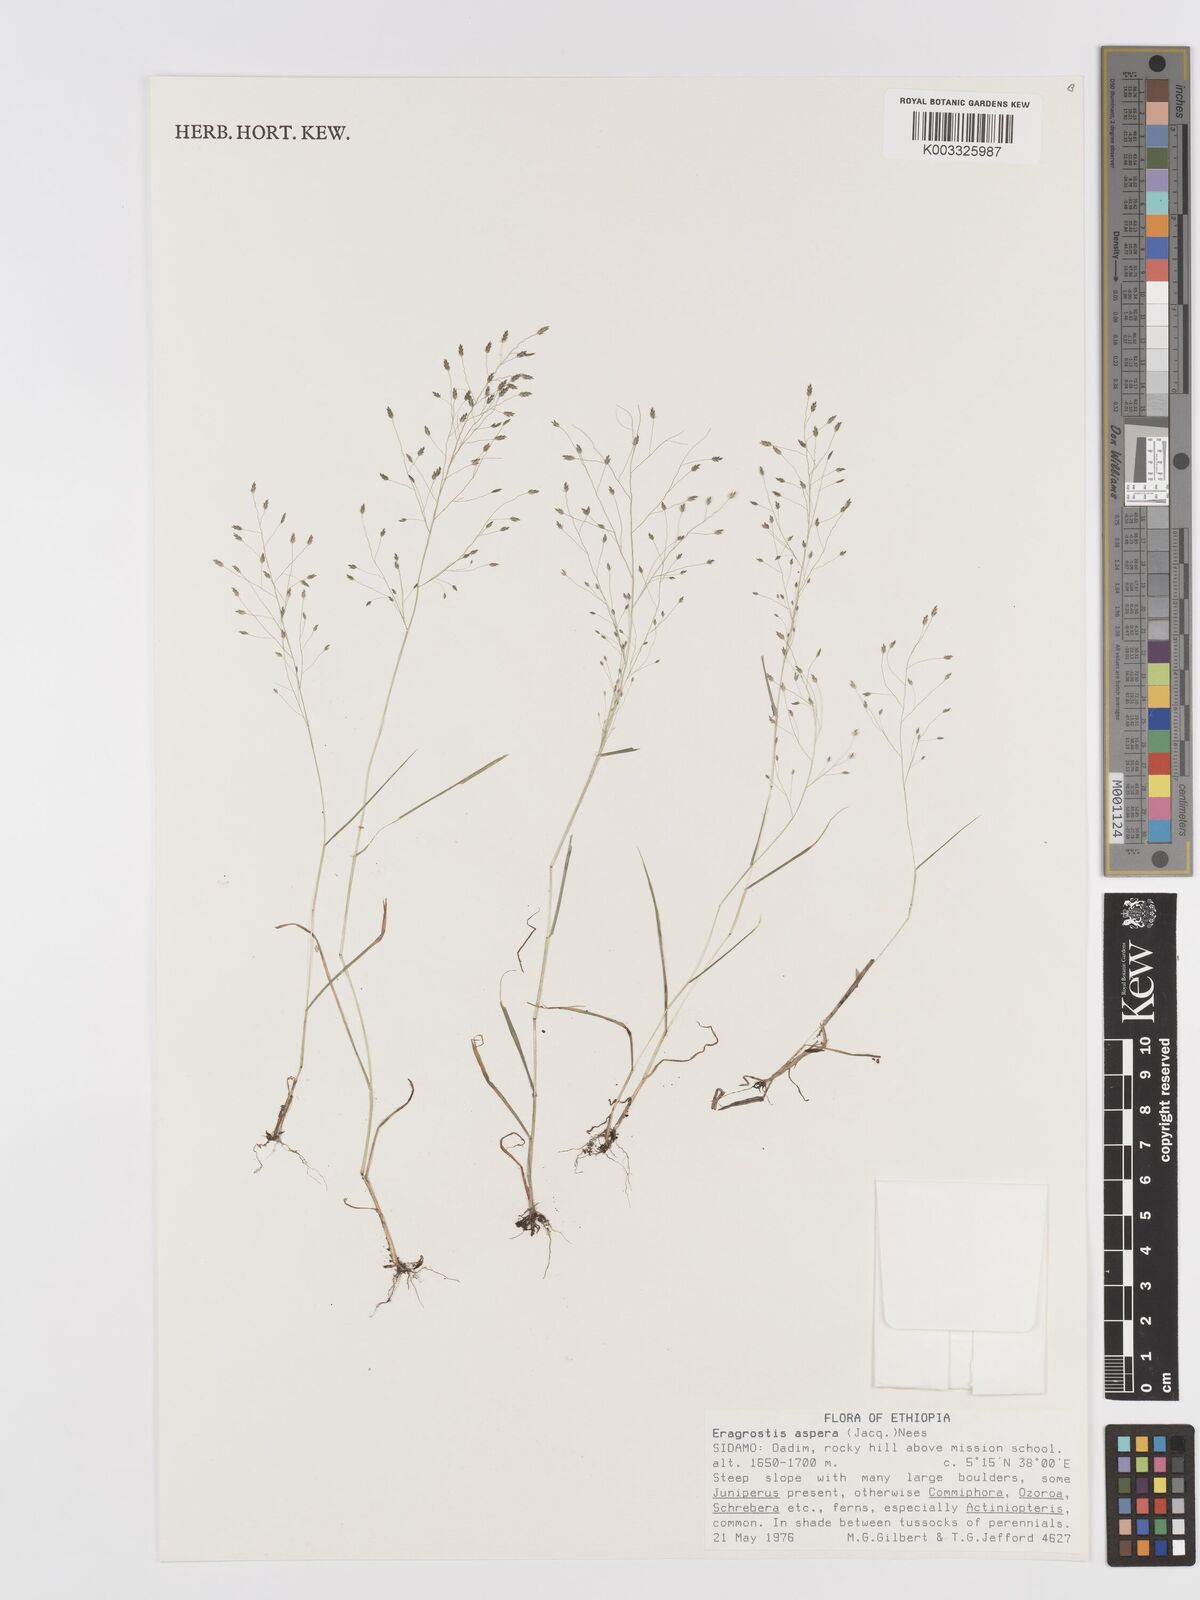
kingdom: Plantae
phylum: Tracheophyta
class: Liliopsida
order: Poales
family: Poaceae
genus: Eragrostis
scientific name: Eragrostis aspera
